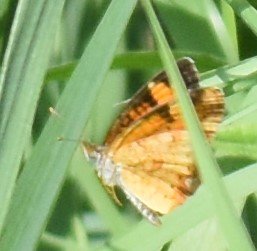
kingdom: Animalia
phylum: Arthropoda
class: Insecta
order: Lepidoptera
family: Nymphalidae
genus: Phyciodes
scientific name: Phyciodes
